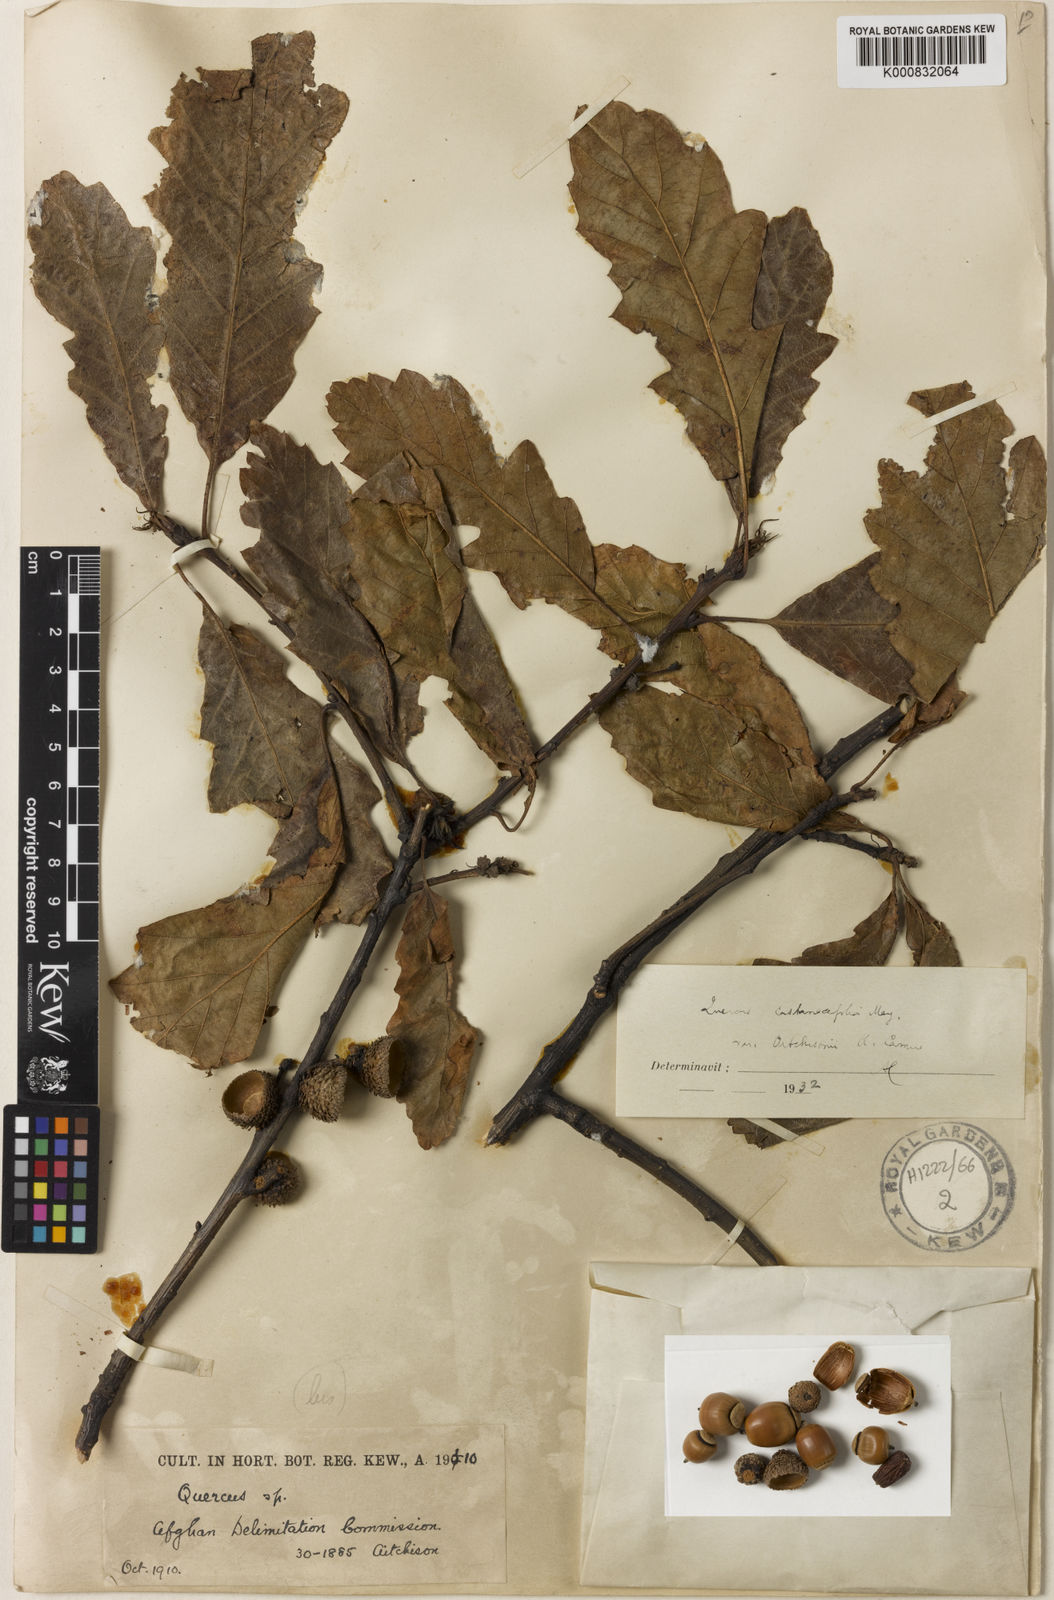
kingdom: Plantae
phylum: Tracheophyta
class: Magnoliopsida
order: Fagales
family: Fagaceae
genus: Quercus
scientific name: Quercus castaneifolia
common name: Chestnut-leaved oak
